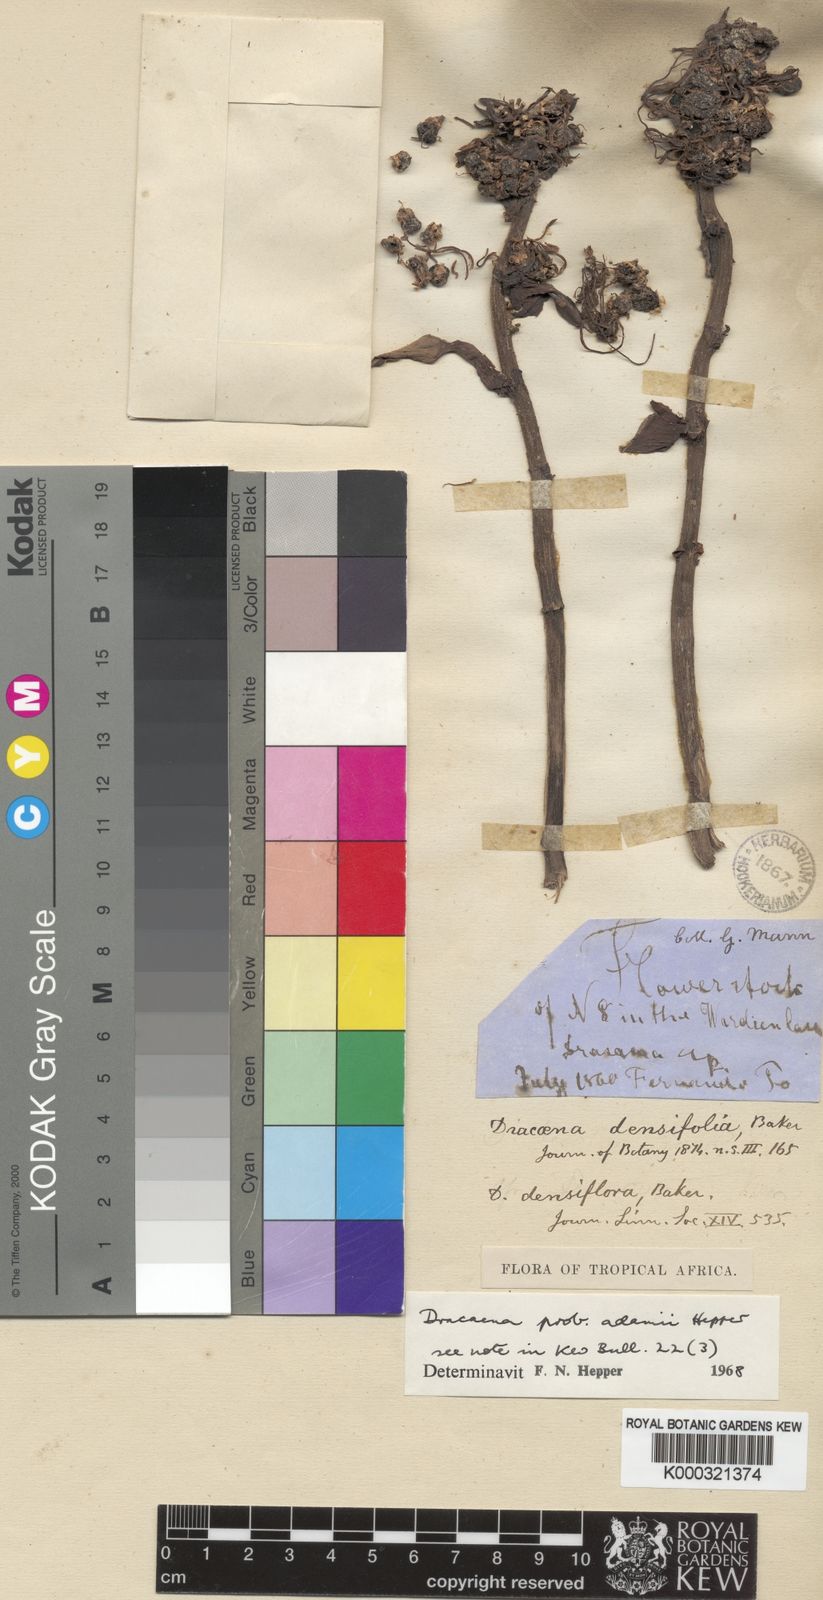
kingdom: Plantae
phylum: Tracheophyta
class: Liliopsida
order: Asparagales
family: Asparagaceae
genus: Dracaena
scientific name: Dracaena bicolor
